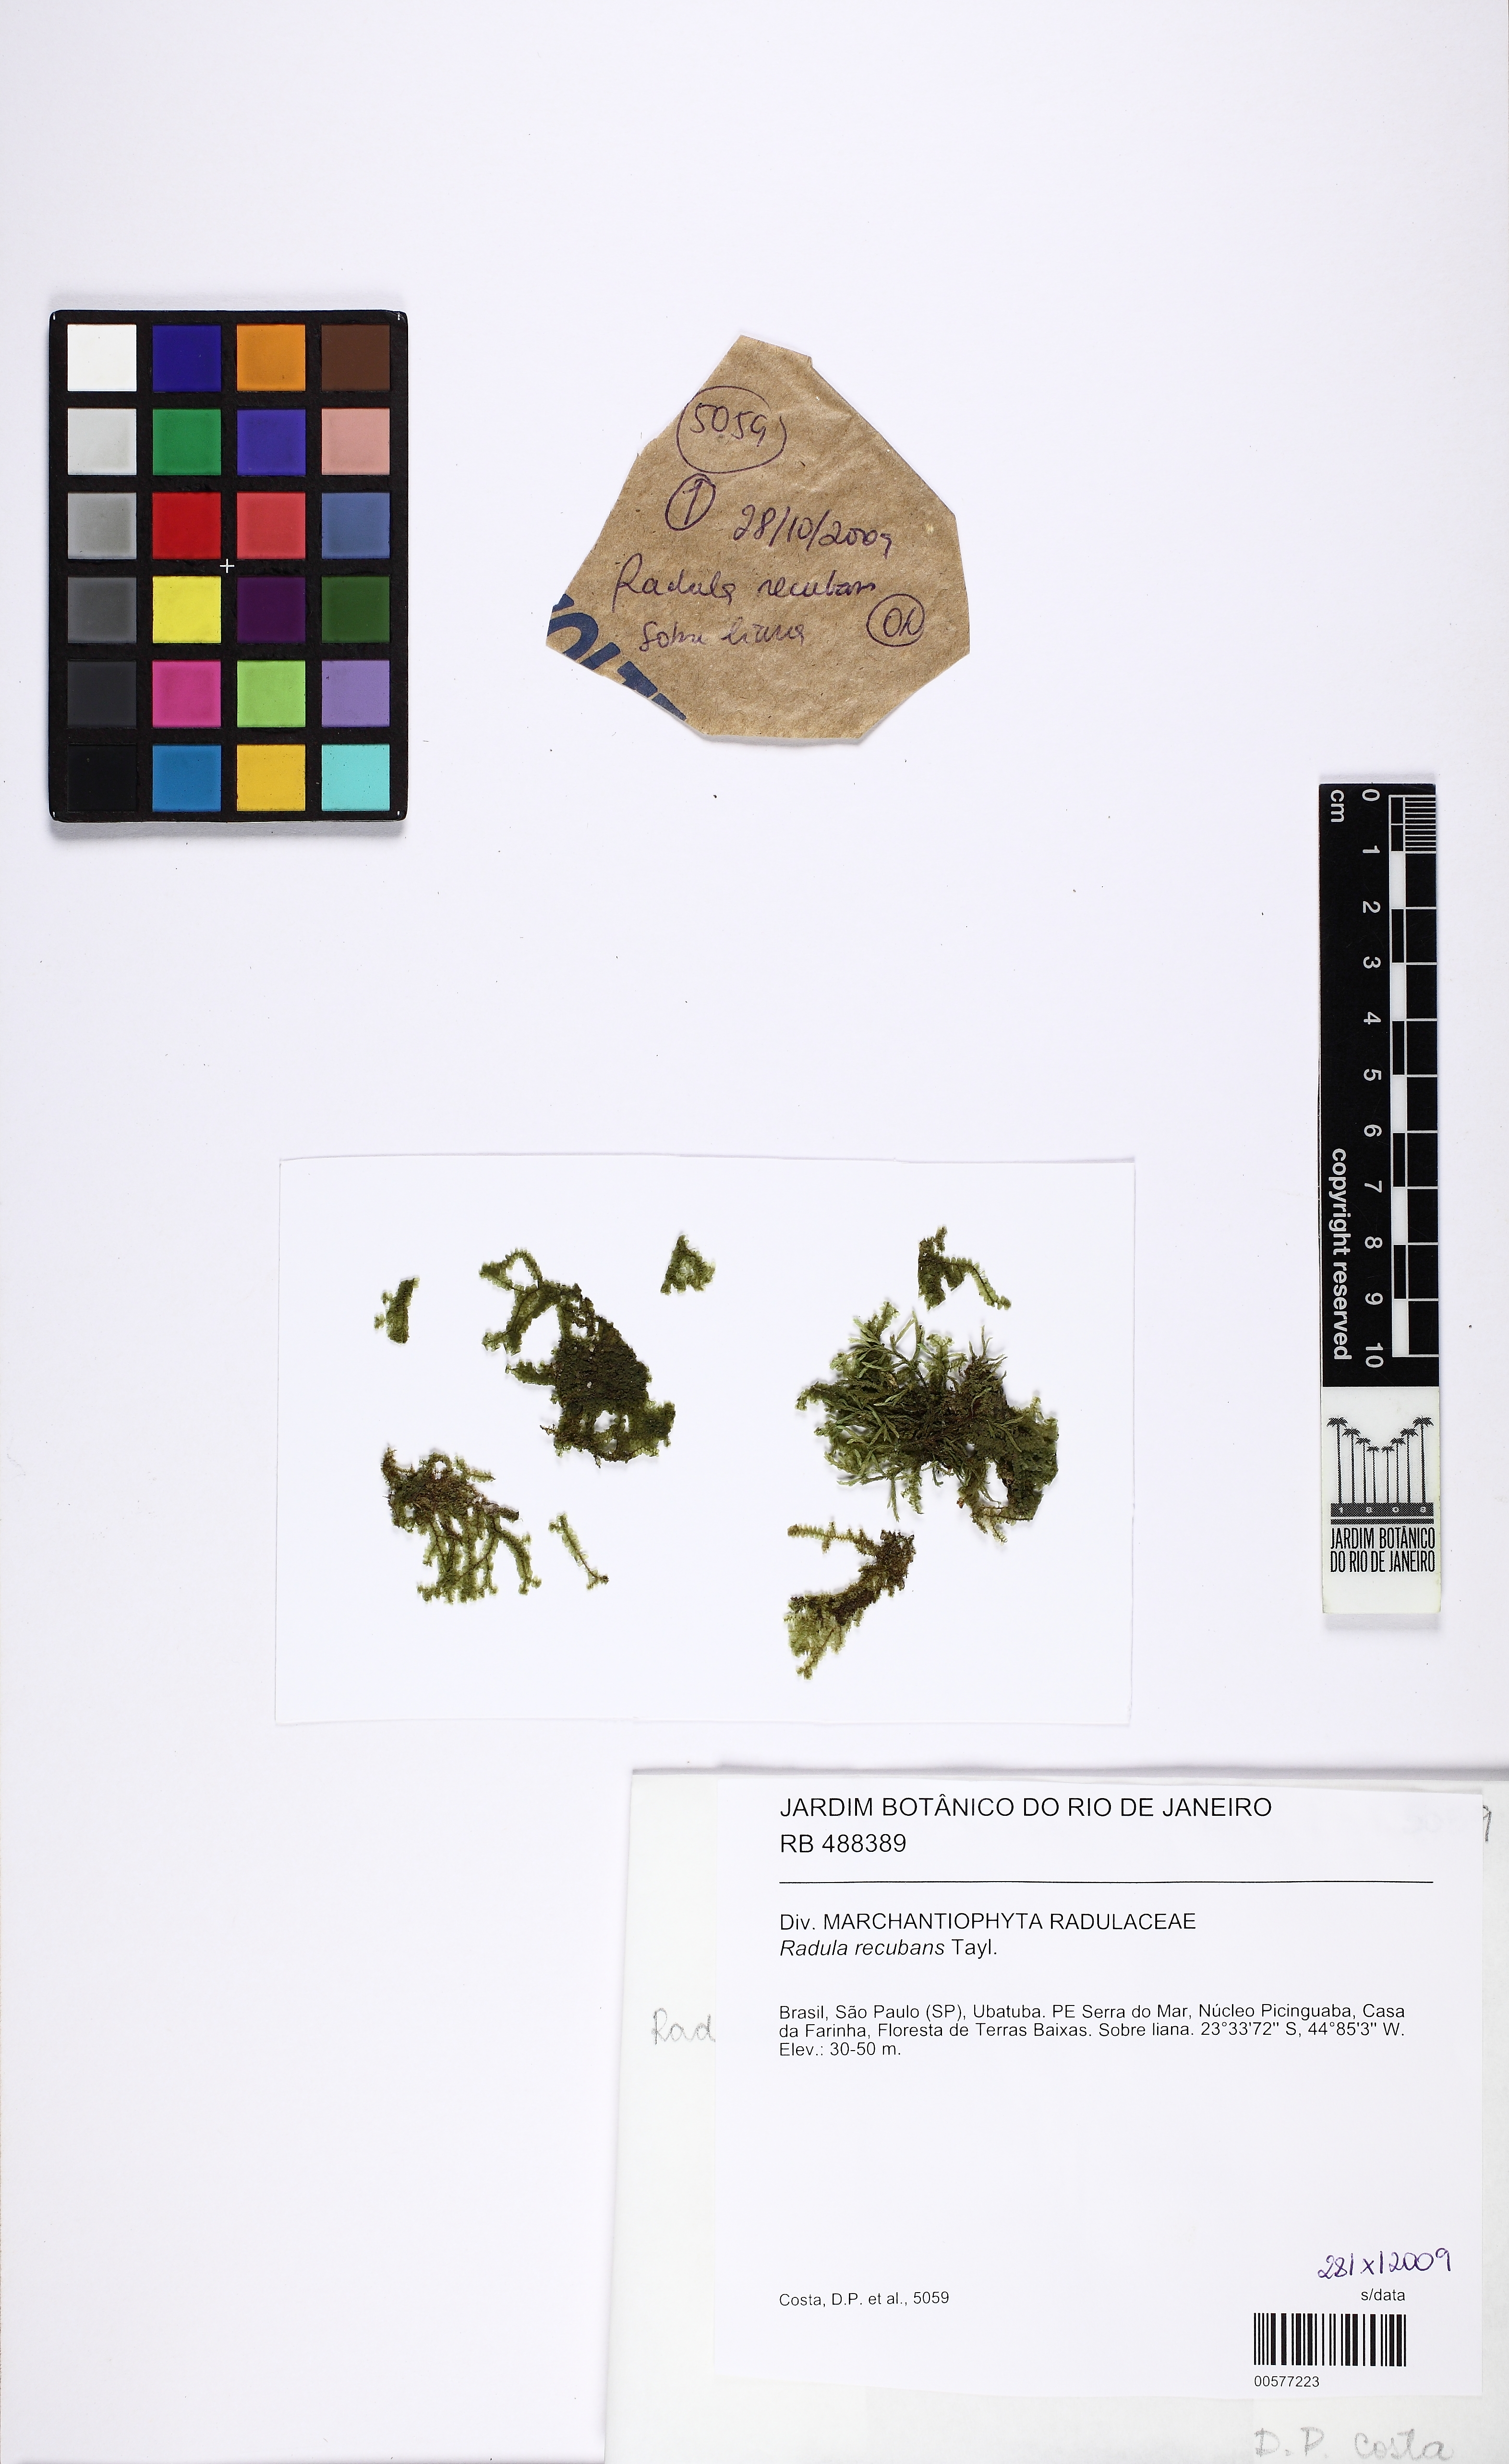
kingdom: Plantae
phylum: Marchantiophyta
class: Jungermanniopsida
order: Porellales
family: Radulaceae
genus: Radula
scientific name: Radula recubans
